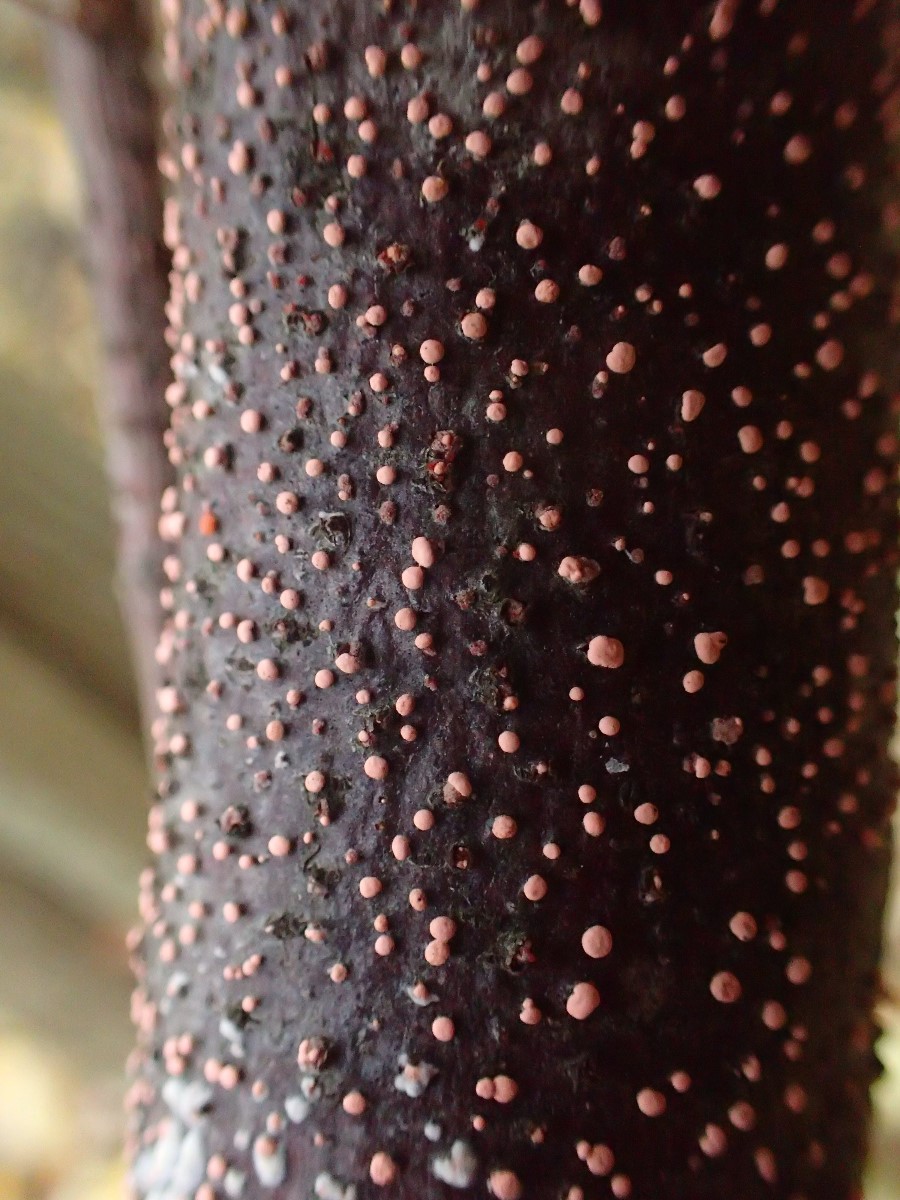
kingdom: Fungi
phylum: Ascomycota
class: Sordariomycetes
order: Hypocreales
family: Nectriaceae
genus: Nectria
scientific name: Nectria cinnabarina
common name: almindelig cinnobersvamp
